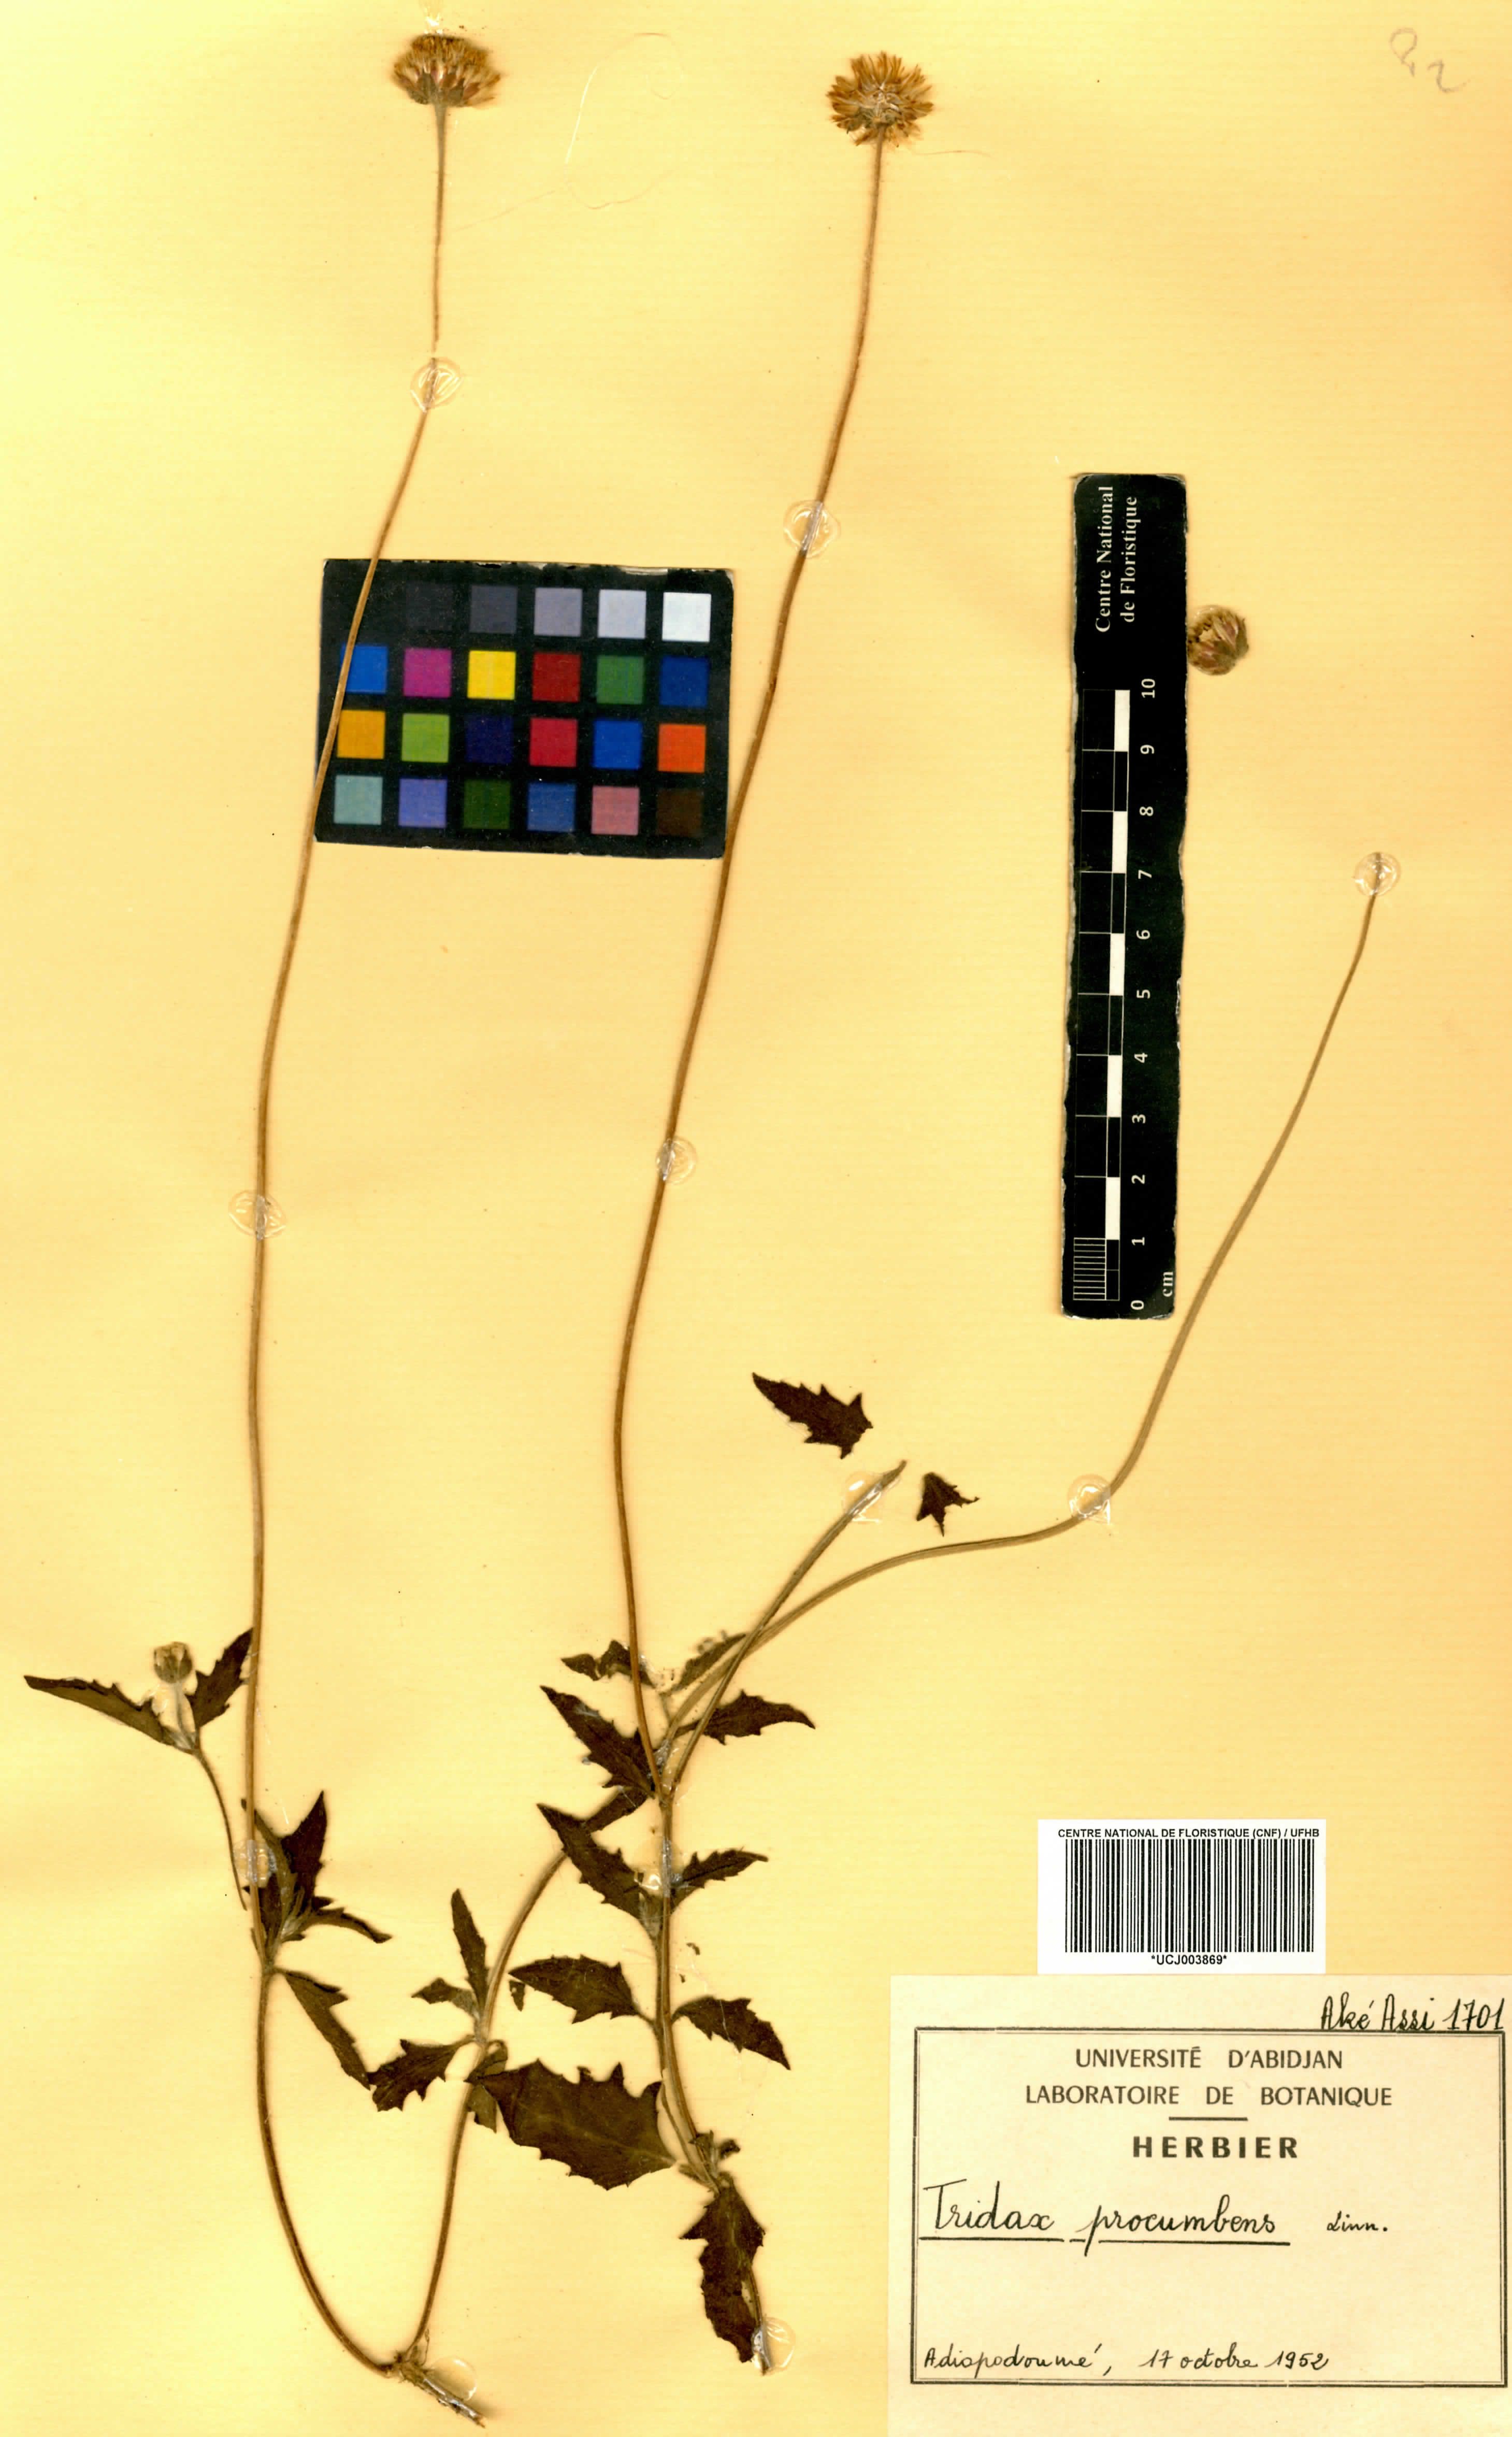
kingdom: Plantae
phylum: Tracheophyta
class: Magnoliopsida
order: Asterales
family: Asteraceae
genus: Tridax
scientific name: Tridax procumbens
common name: Coatbuttons
